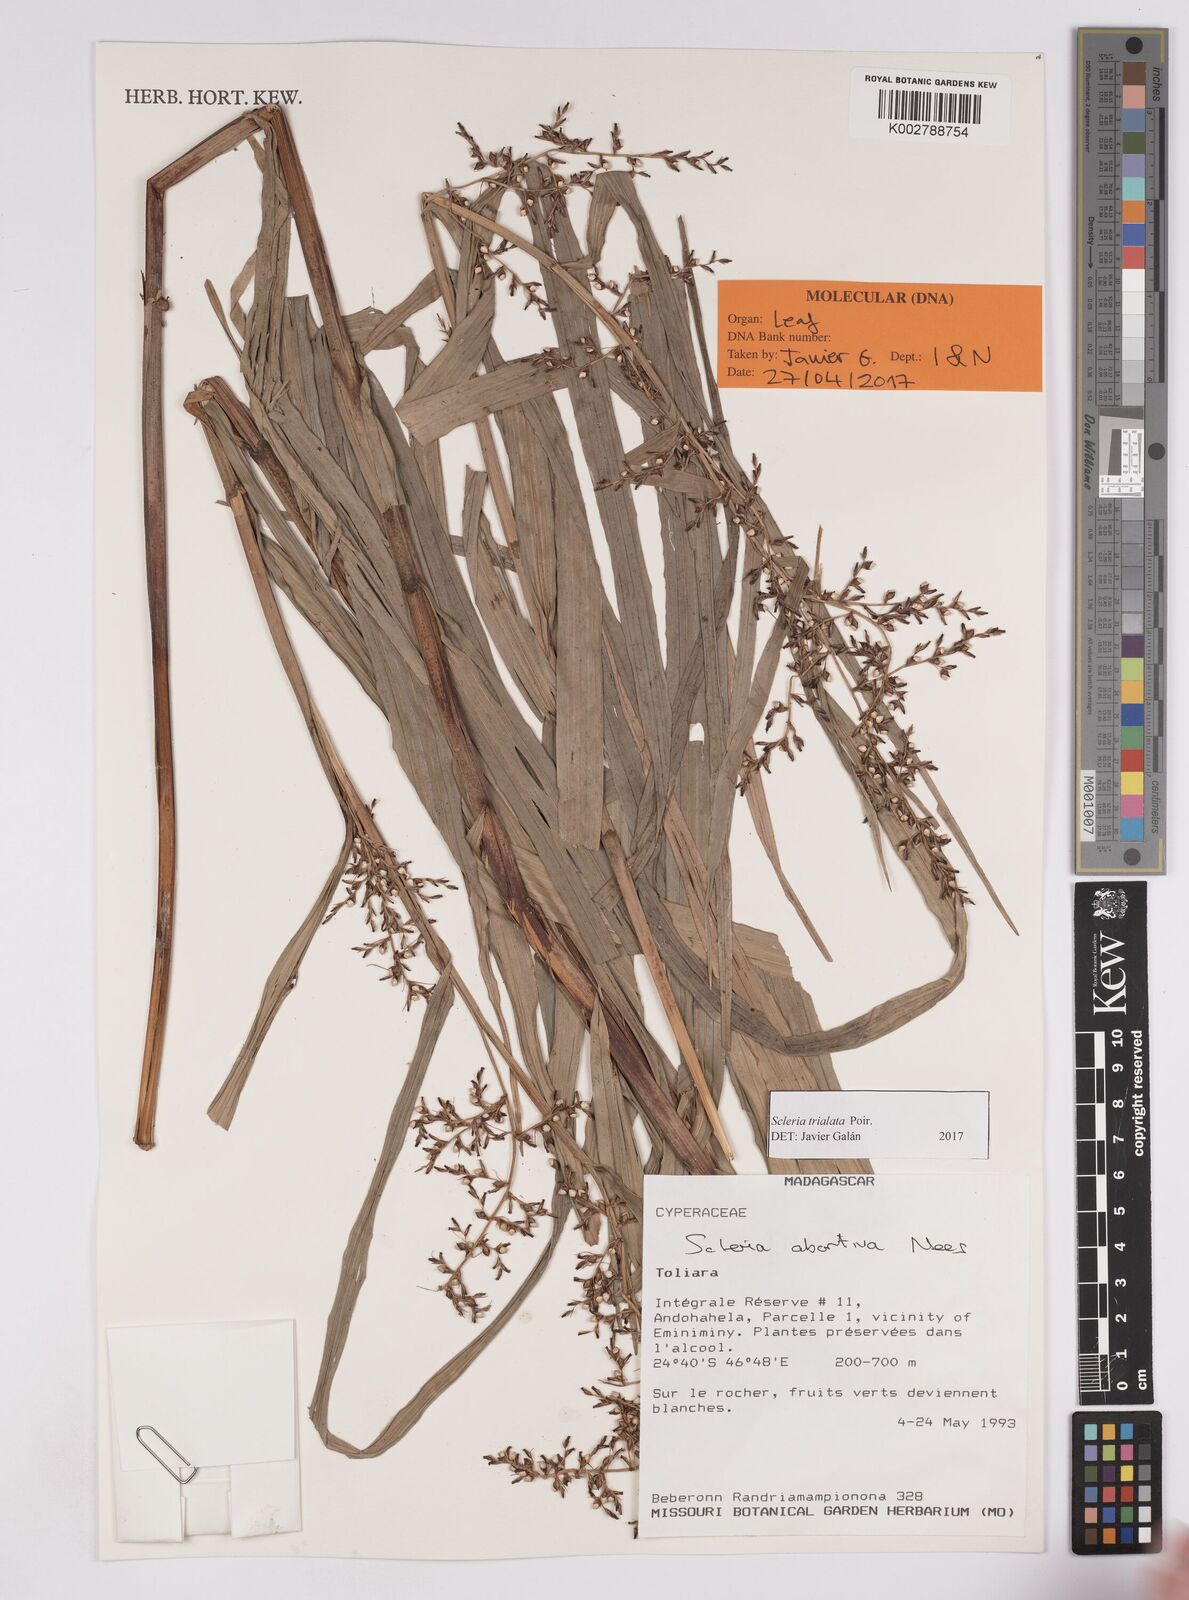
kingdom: Plantae
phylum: Tracheophyta
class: Liliopsida
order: Poales
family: Cyperaceae
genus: Scleria
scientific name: Scleria trialata
